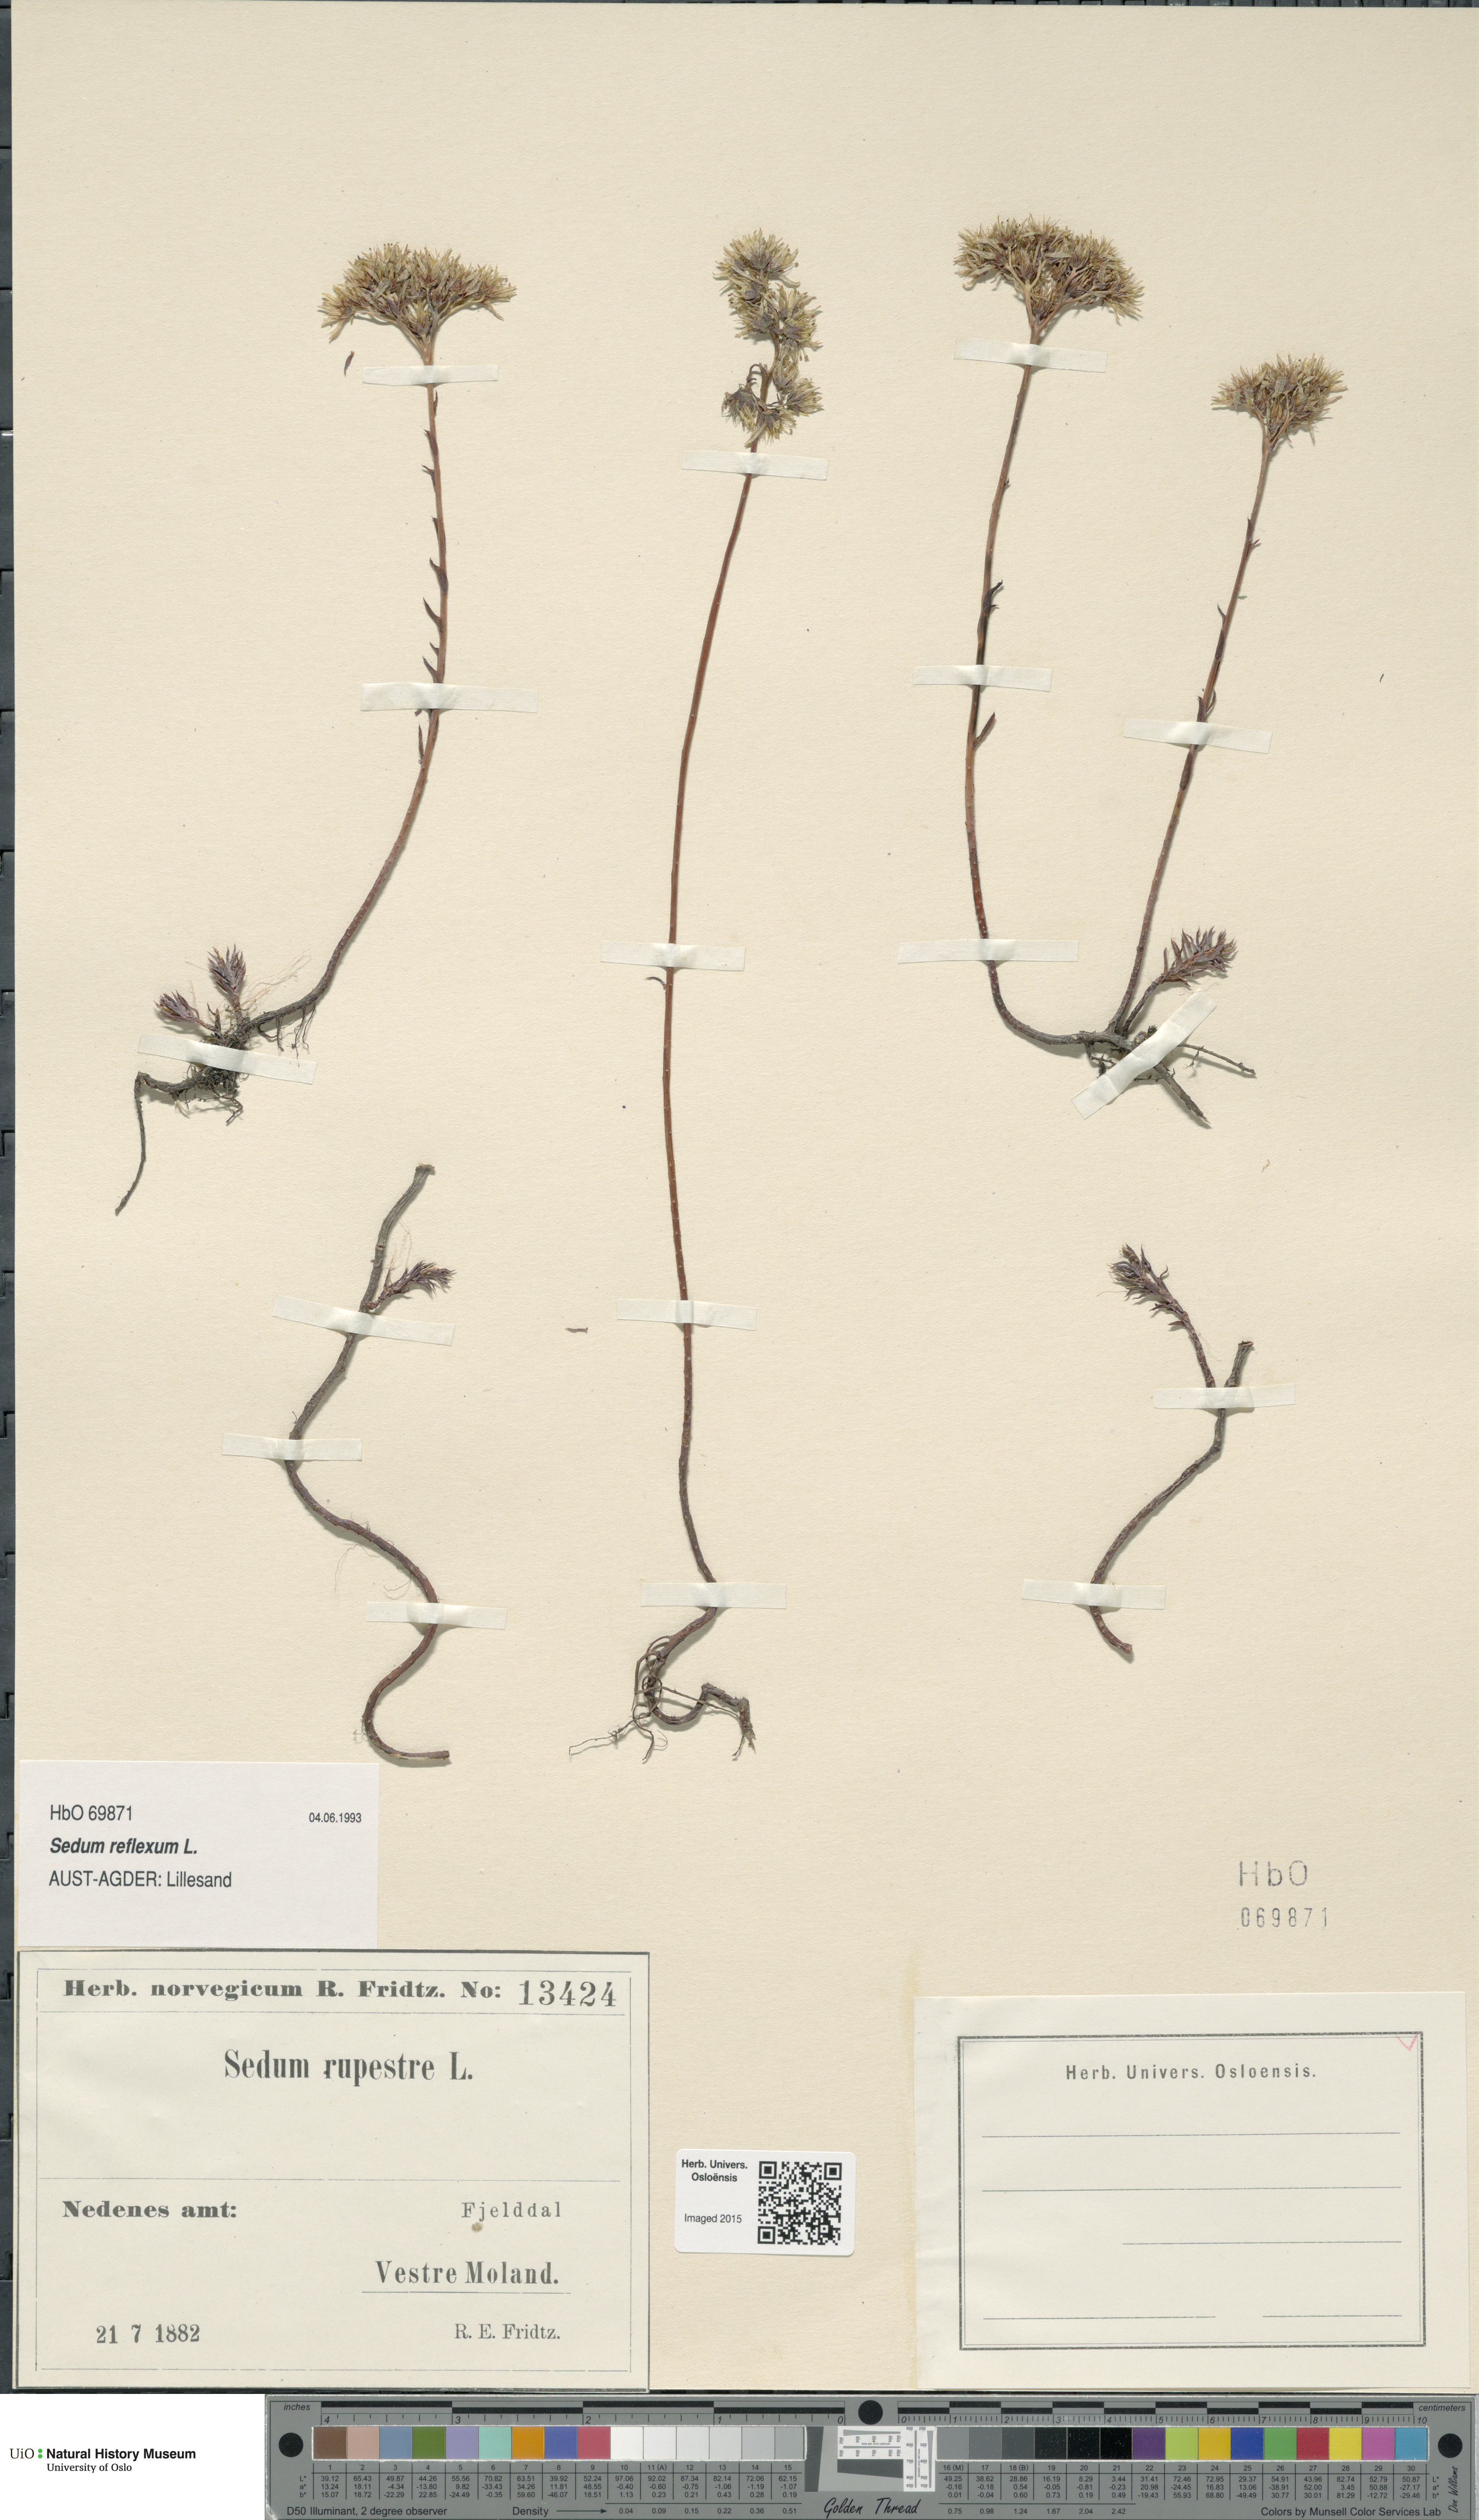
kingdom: Plantae
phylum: Tracheophyta
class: Magnoliopsida
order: Saxifragales
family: Crassulaceae
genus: Petrosedum
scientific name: Petrosedum rupestre
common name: Jenny's stonecrop
